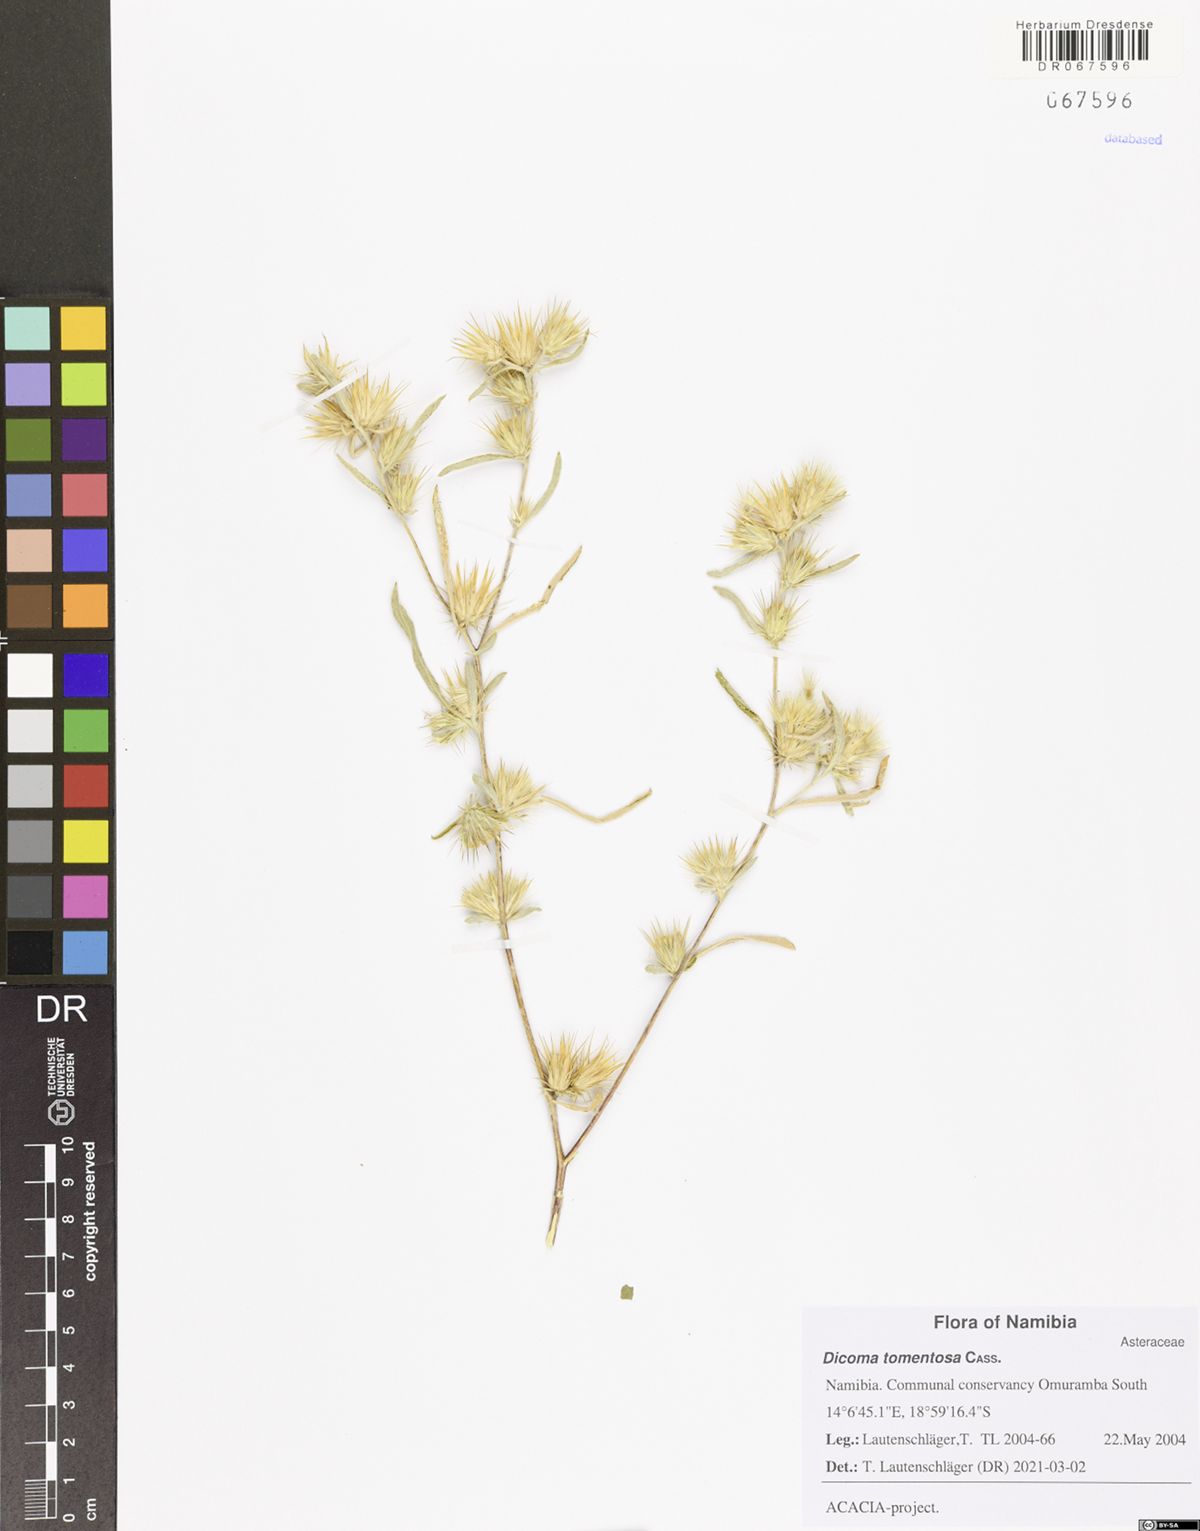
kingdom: Plantae
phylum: Tracheophyta
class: Magnoliopsida
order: Asterales
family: Asteraceae
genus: Dicoma
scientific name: Dicoma tomentosa
